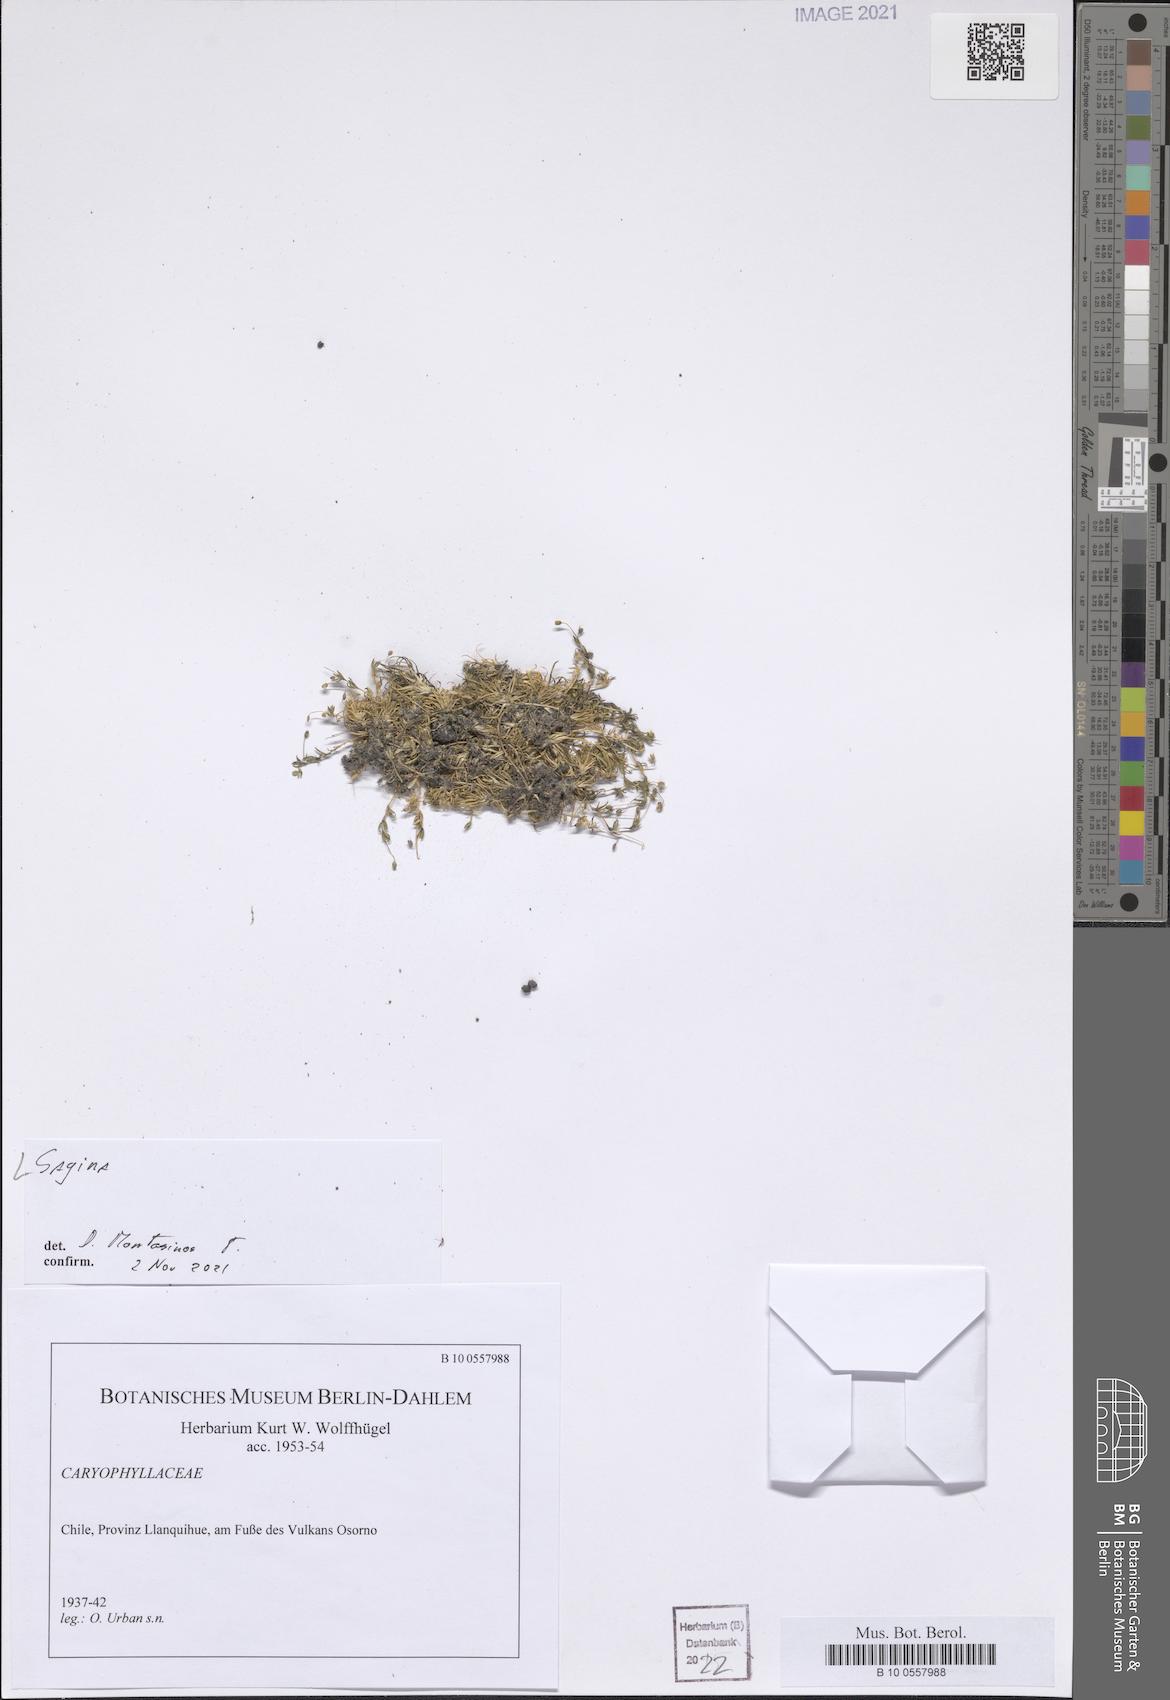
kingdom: Plantae
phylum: Tracheophyta
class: Magnoliopsida
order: Caryophyllales
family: Caryophyllaceae
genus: Sagina
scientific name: Sagina
